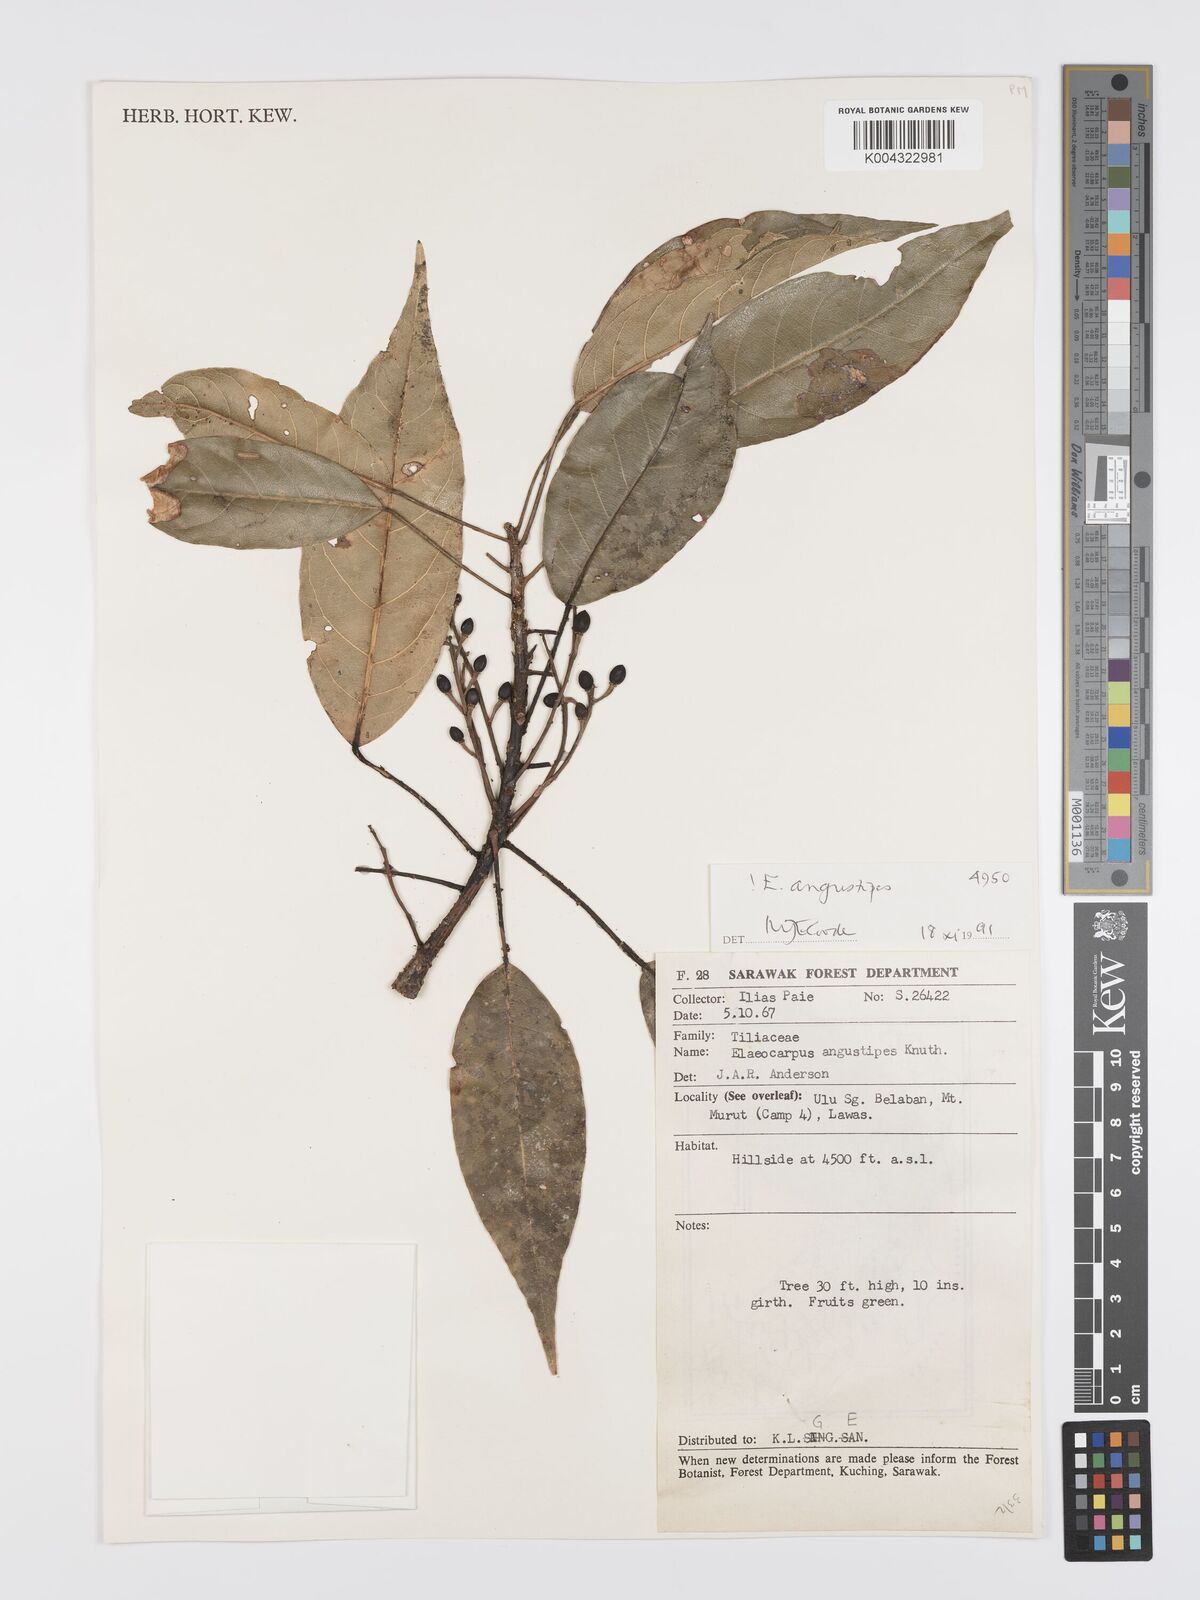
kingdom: Plantae
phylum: Tracheophyta
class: Magnoliopsida
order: Oxalidales
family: Elaeocarpaceae
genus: Elaeocarpus
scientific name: Elaeocarpus angustipes
